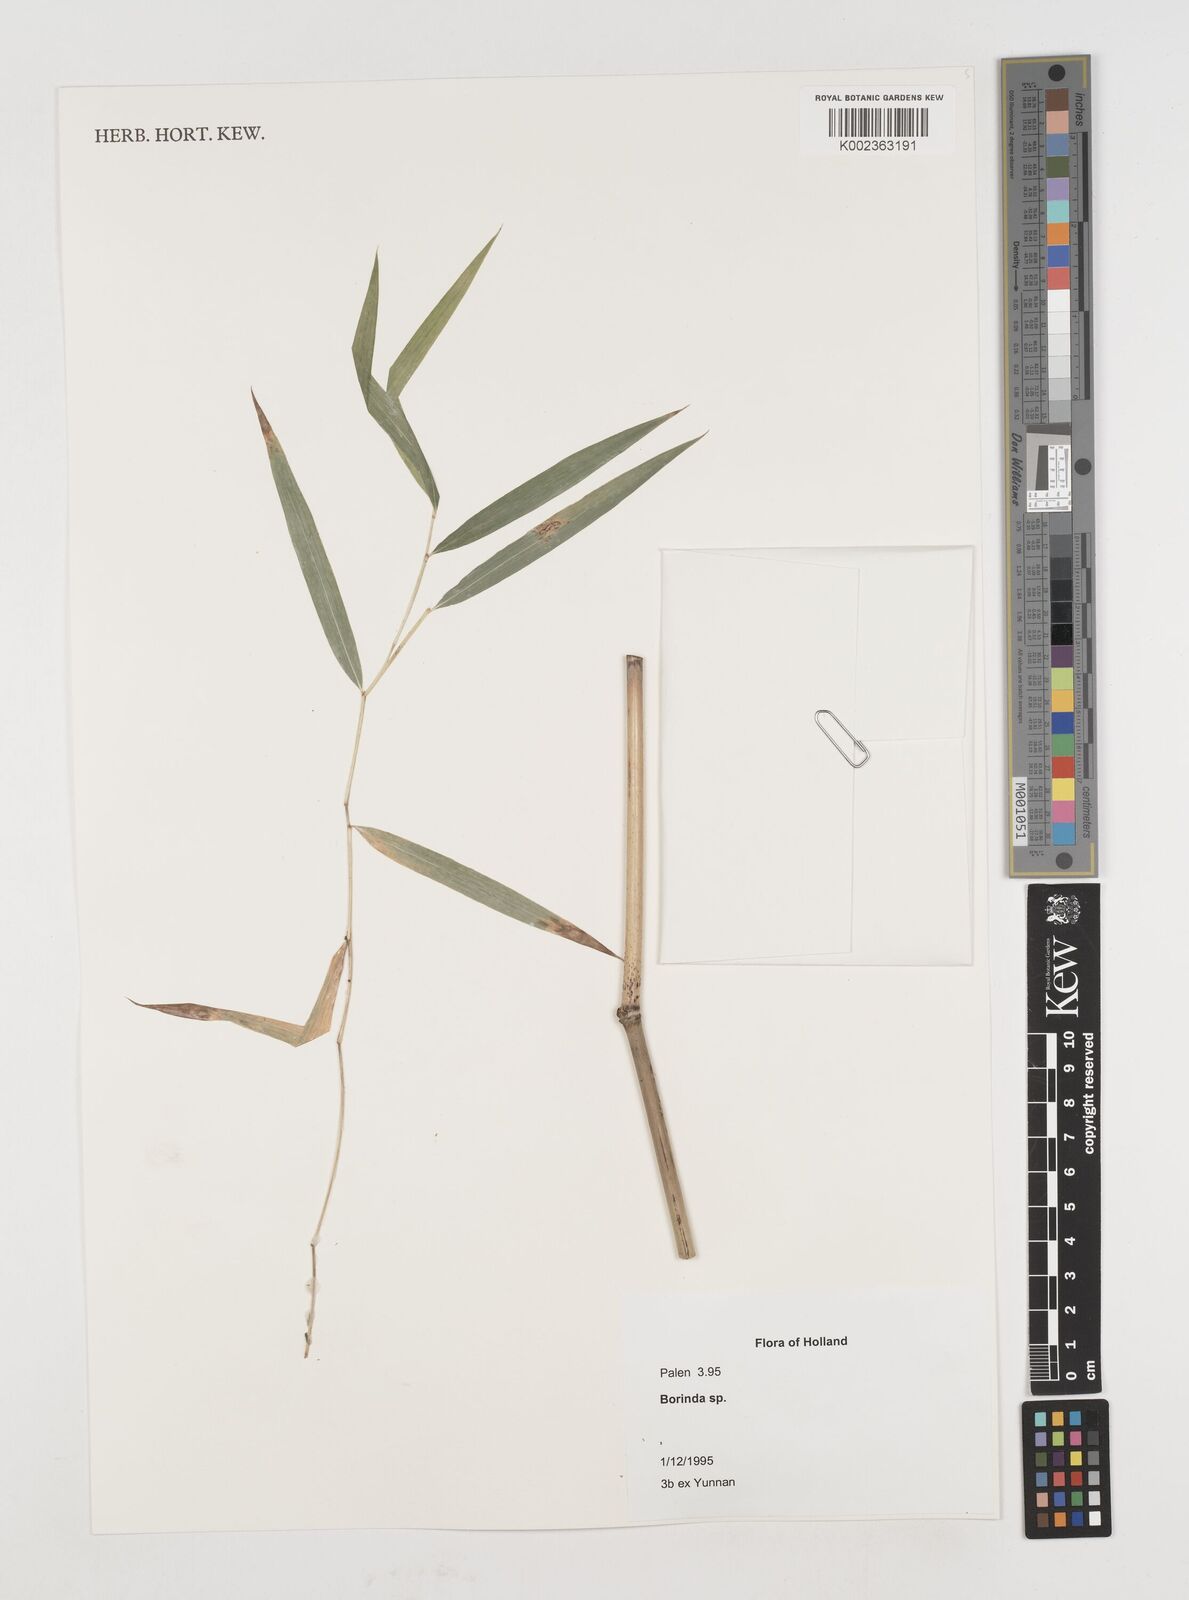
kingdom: Plantae
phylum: Tracheophyta
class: Liliopsida
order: Poales
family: Poaceae
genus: Fargesia
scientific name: Fargesia
